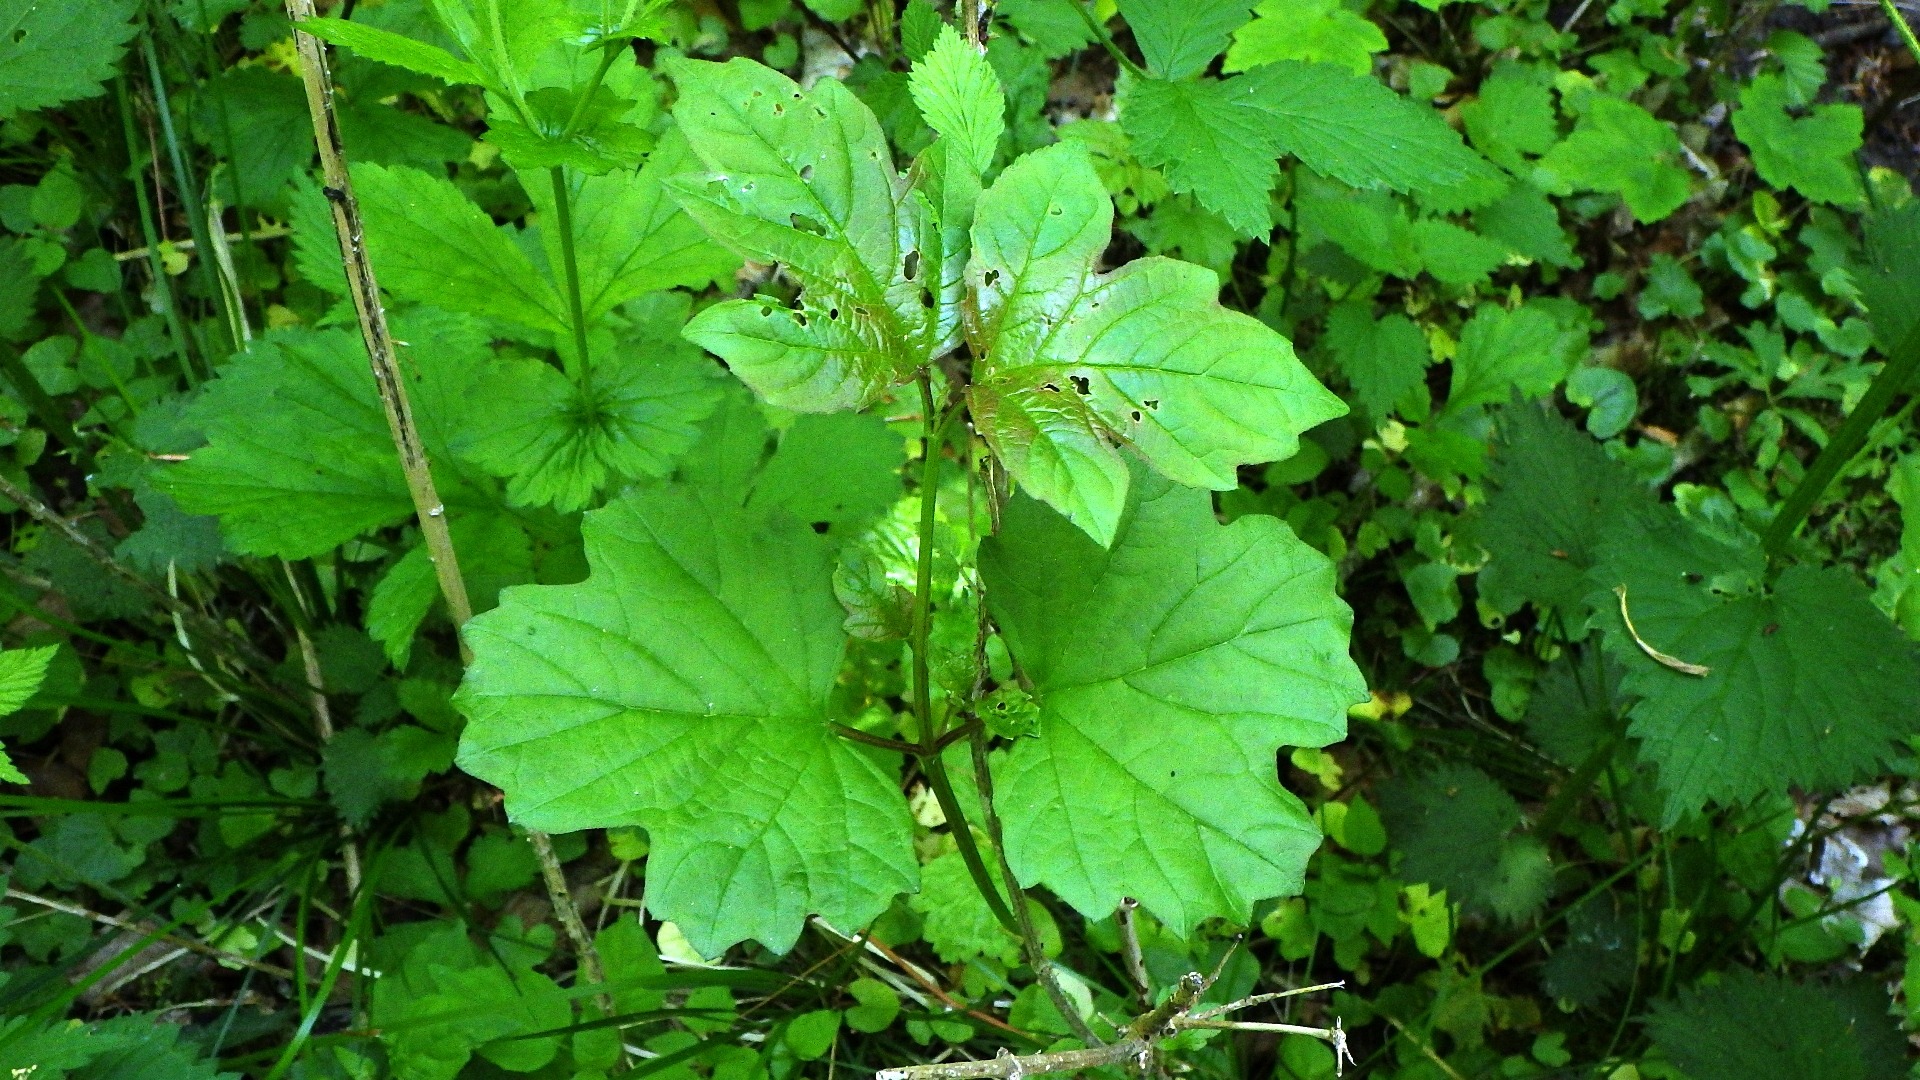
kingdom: Plantae
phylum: Tracheophyta
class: Magnoliopsida
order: Dipsacales
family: Viburnaceae
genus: Viburnum
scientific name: Viburnum opulus
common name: Kvalkved
